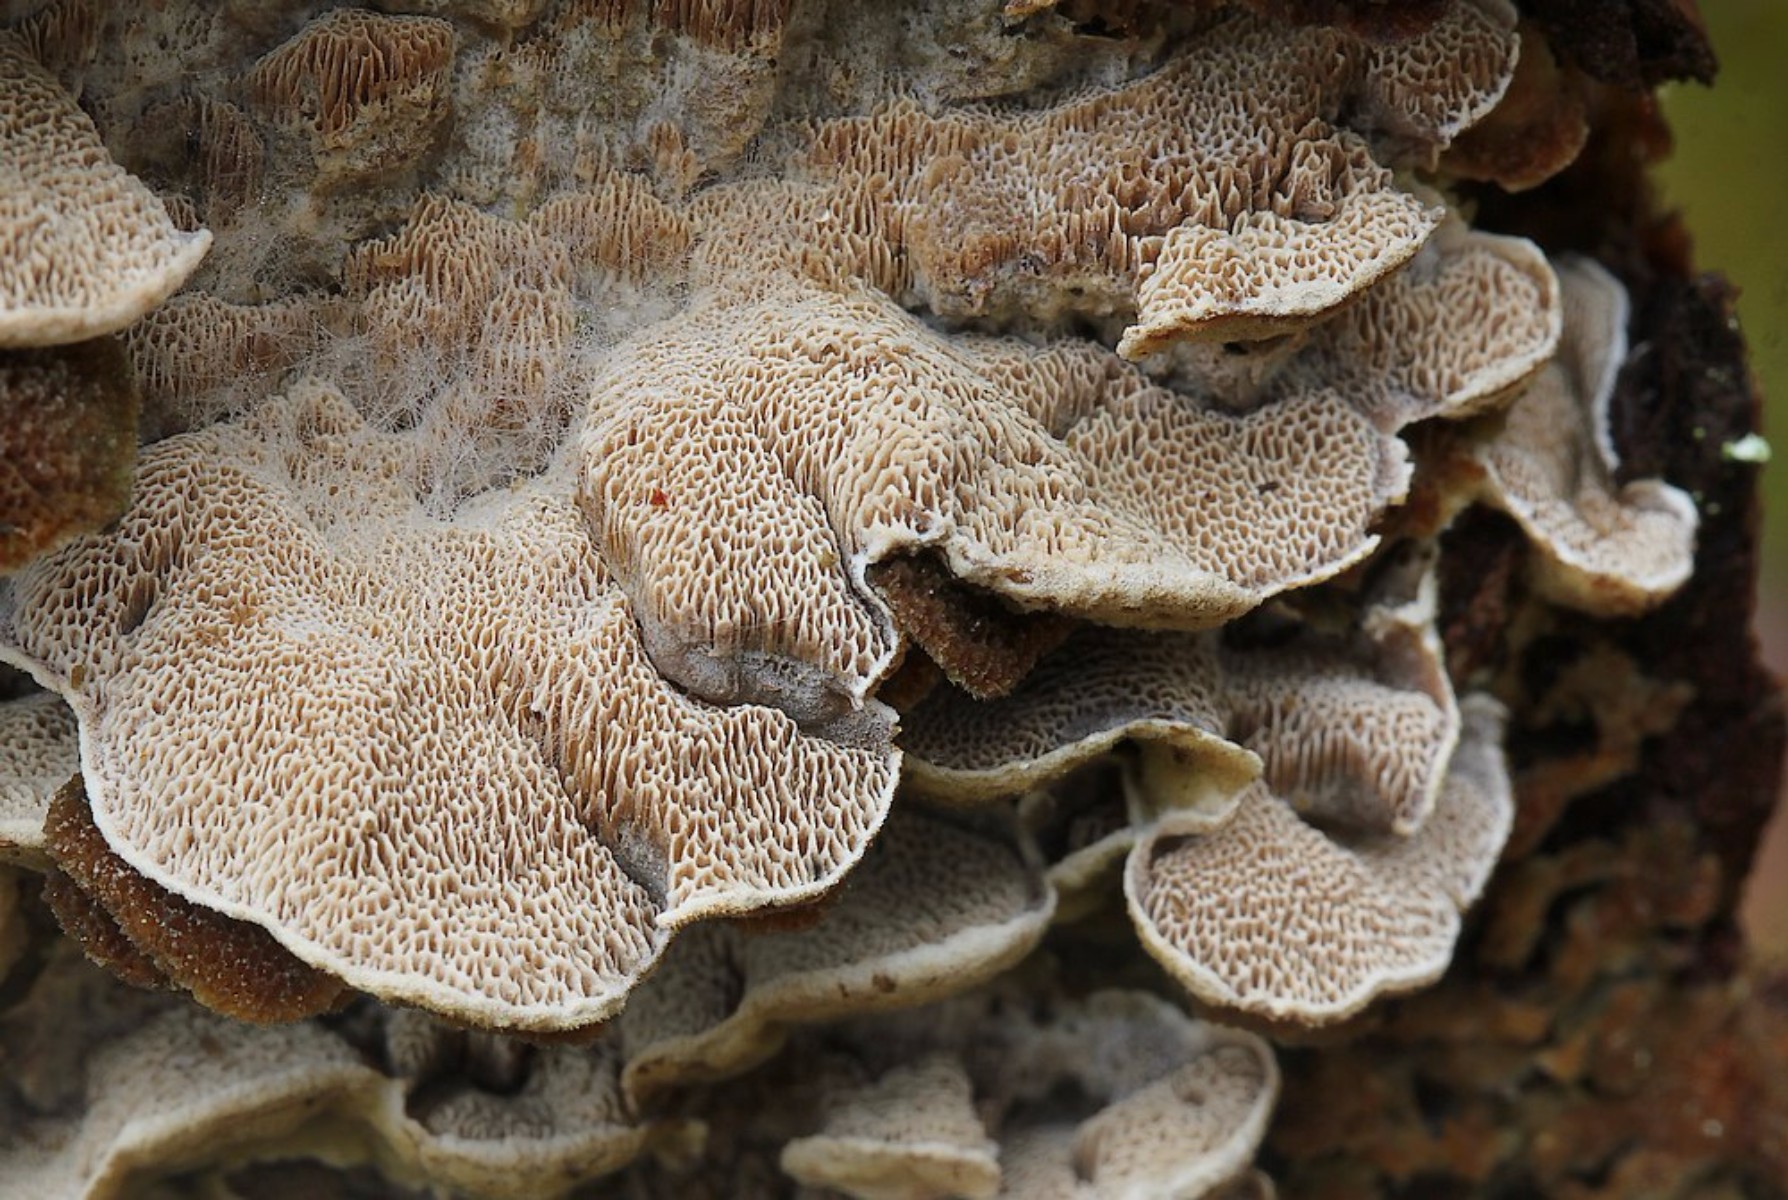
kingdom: Fungi
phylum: Basidiomycota
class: Agaricomycetes
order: Polyporales
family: Incrustoporiaceae
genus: Skeletocutis
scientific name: Skeletocutis carneogrisea
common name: rødgrå krystalporesvamp
